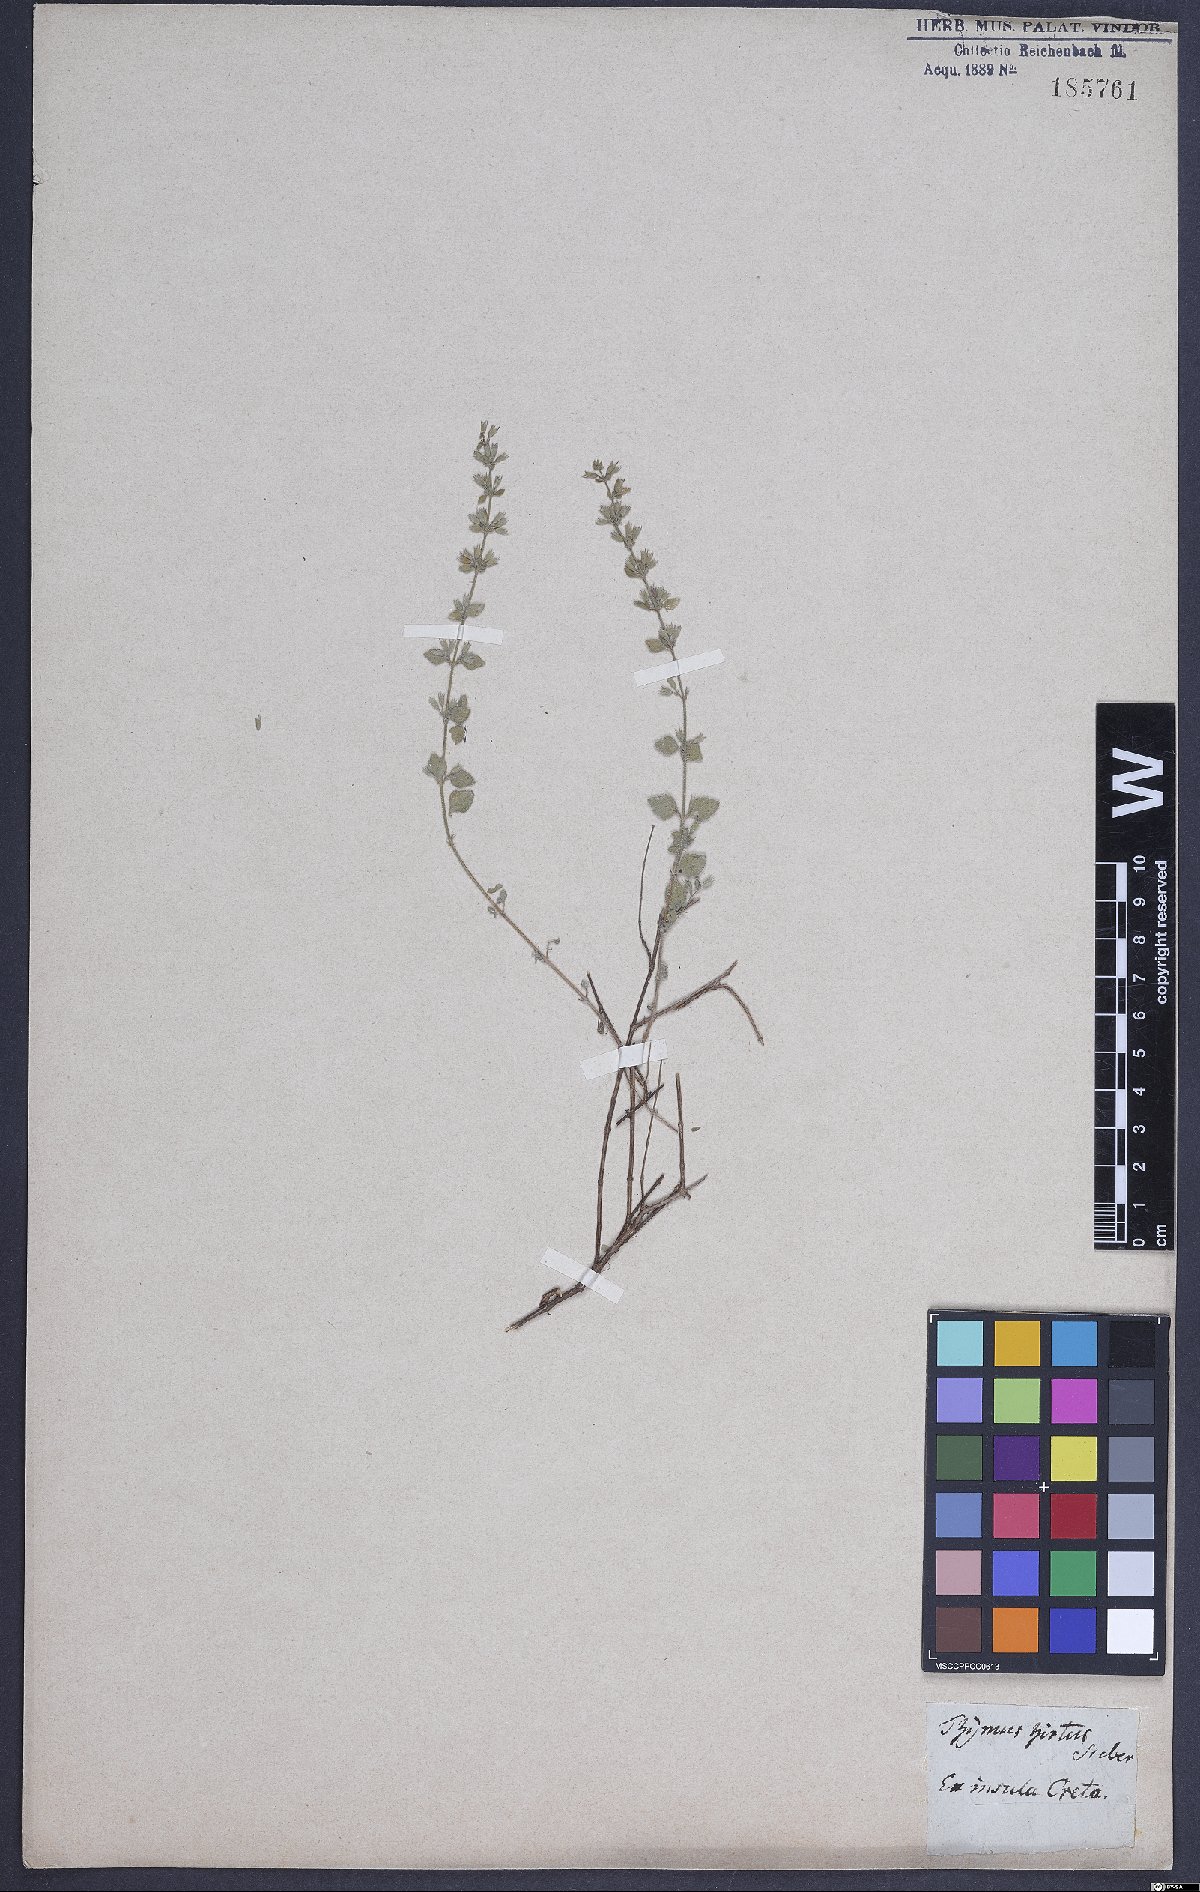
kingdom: Plantae
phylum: Tracheophyta
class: Magnoliopsida
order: Lamiales
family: Lamiaceae
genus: Clinopodium
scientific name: Clinopodium creticum
